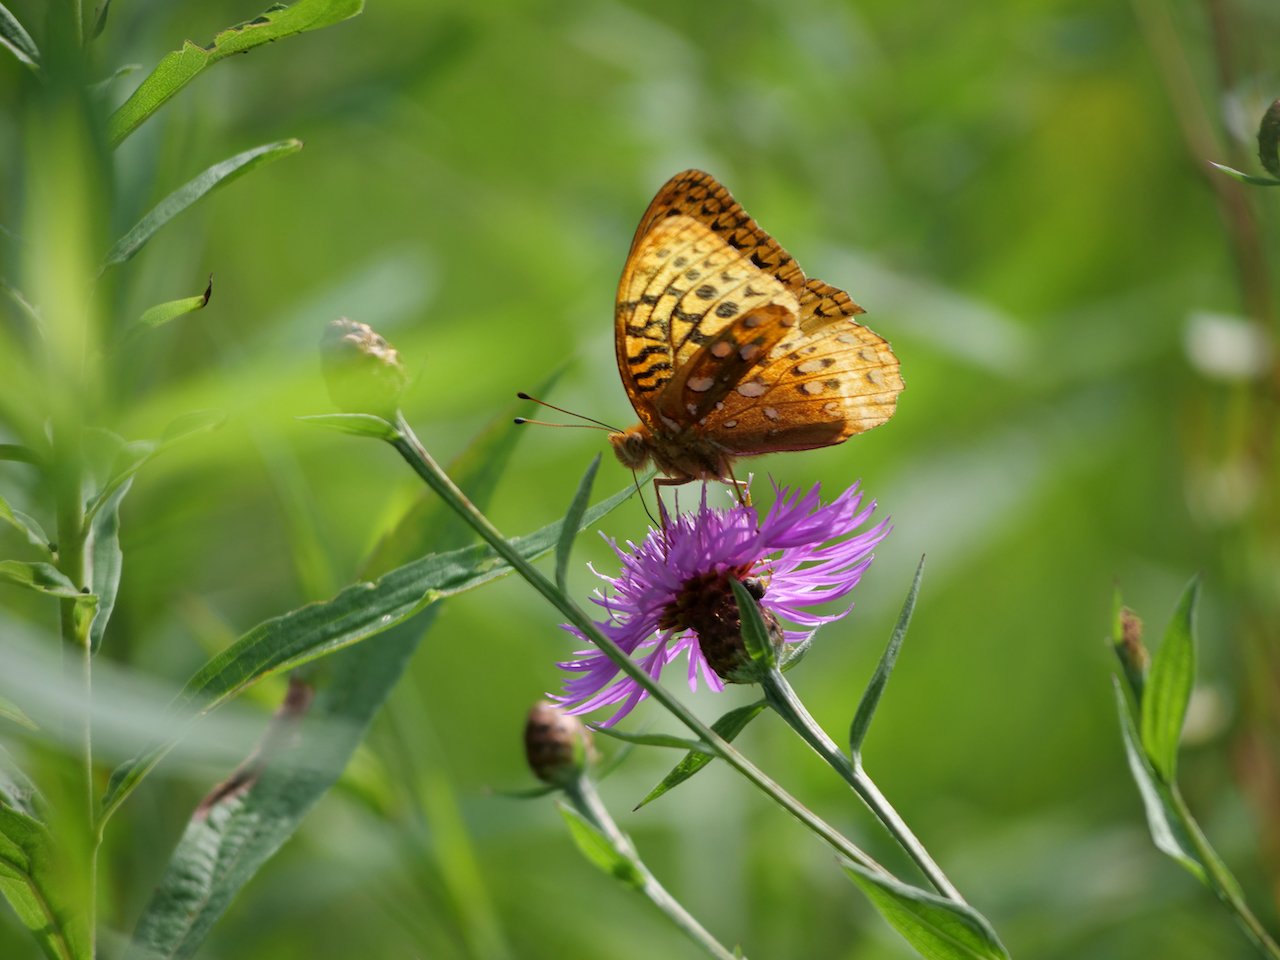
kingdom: Animalia
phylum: Arthropoda
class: Insecta
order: Lepidoptera
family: Nymphalidae
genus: Speyeria
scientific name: Speyeria cybele
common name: Great Spangled Fritillary
